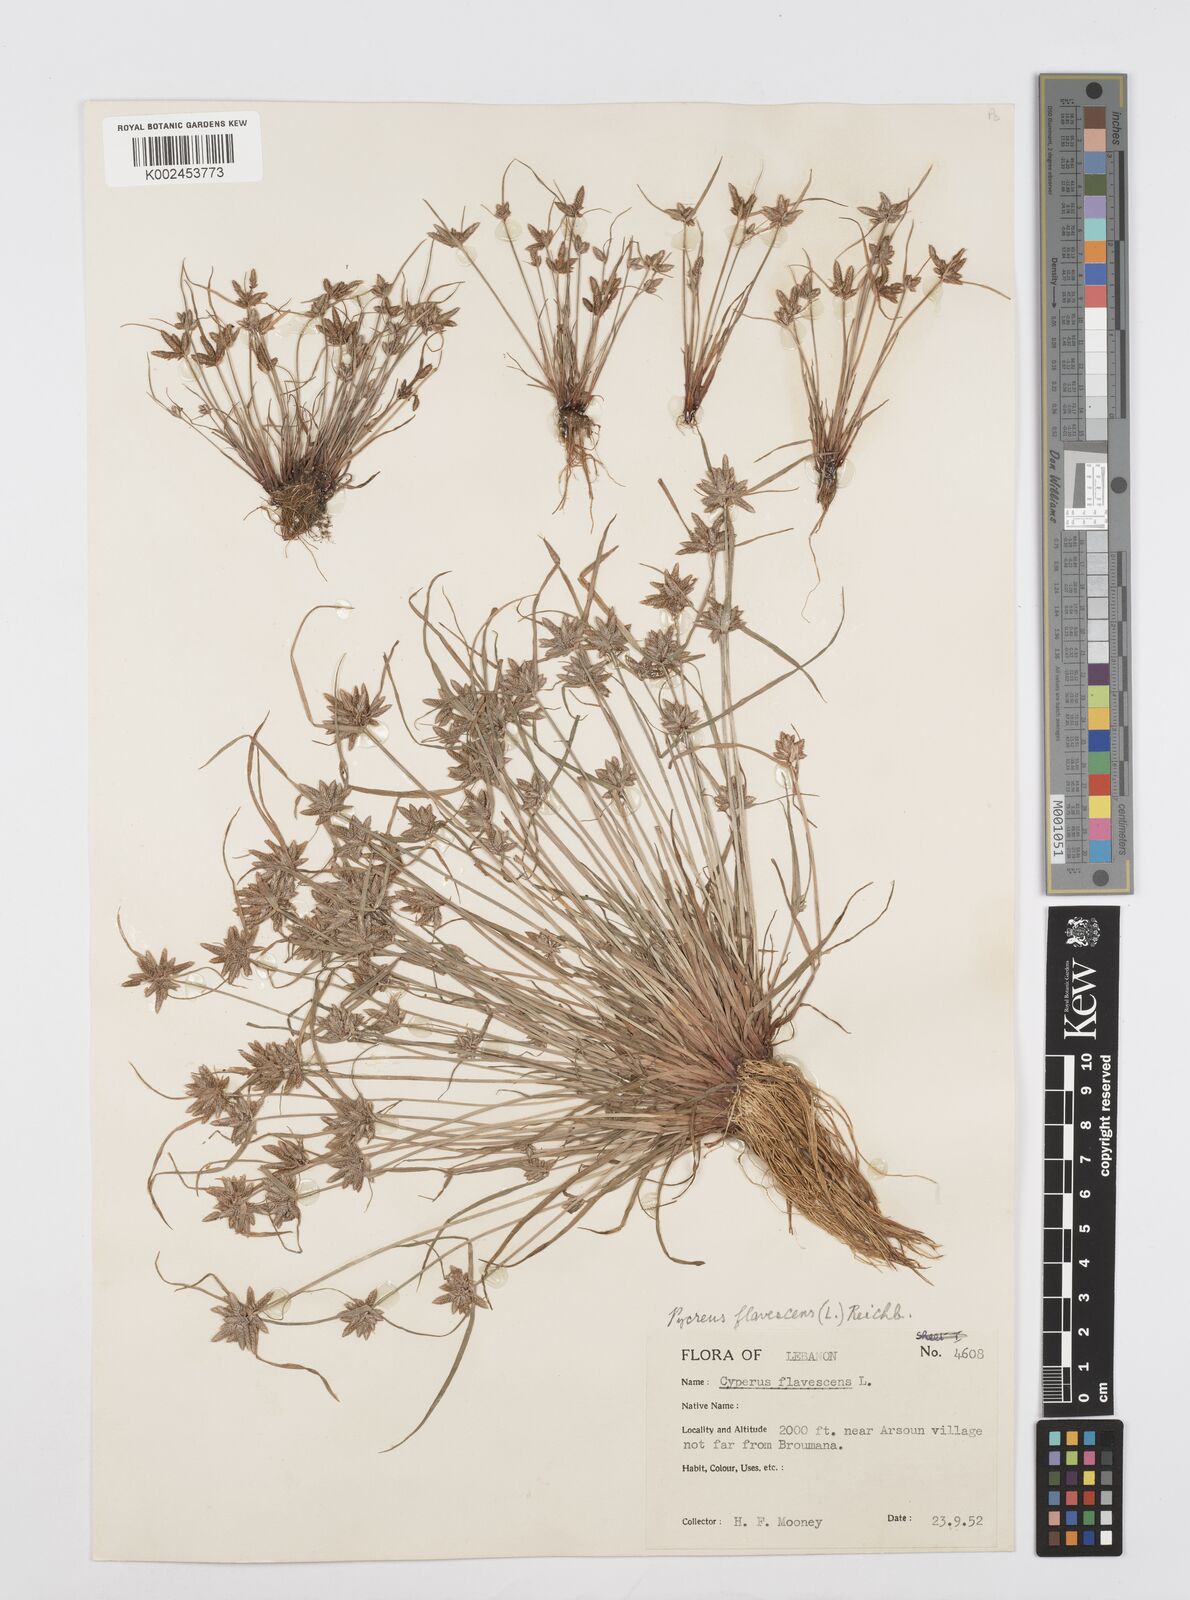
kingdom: Plantae
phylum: Tracheophyta
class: Liliopsida
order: Poales
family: Cyperaceae
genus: Cyperus
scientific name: Cyperus flavescens
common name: Yellow galingale
